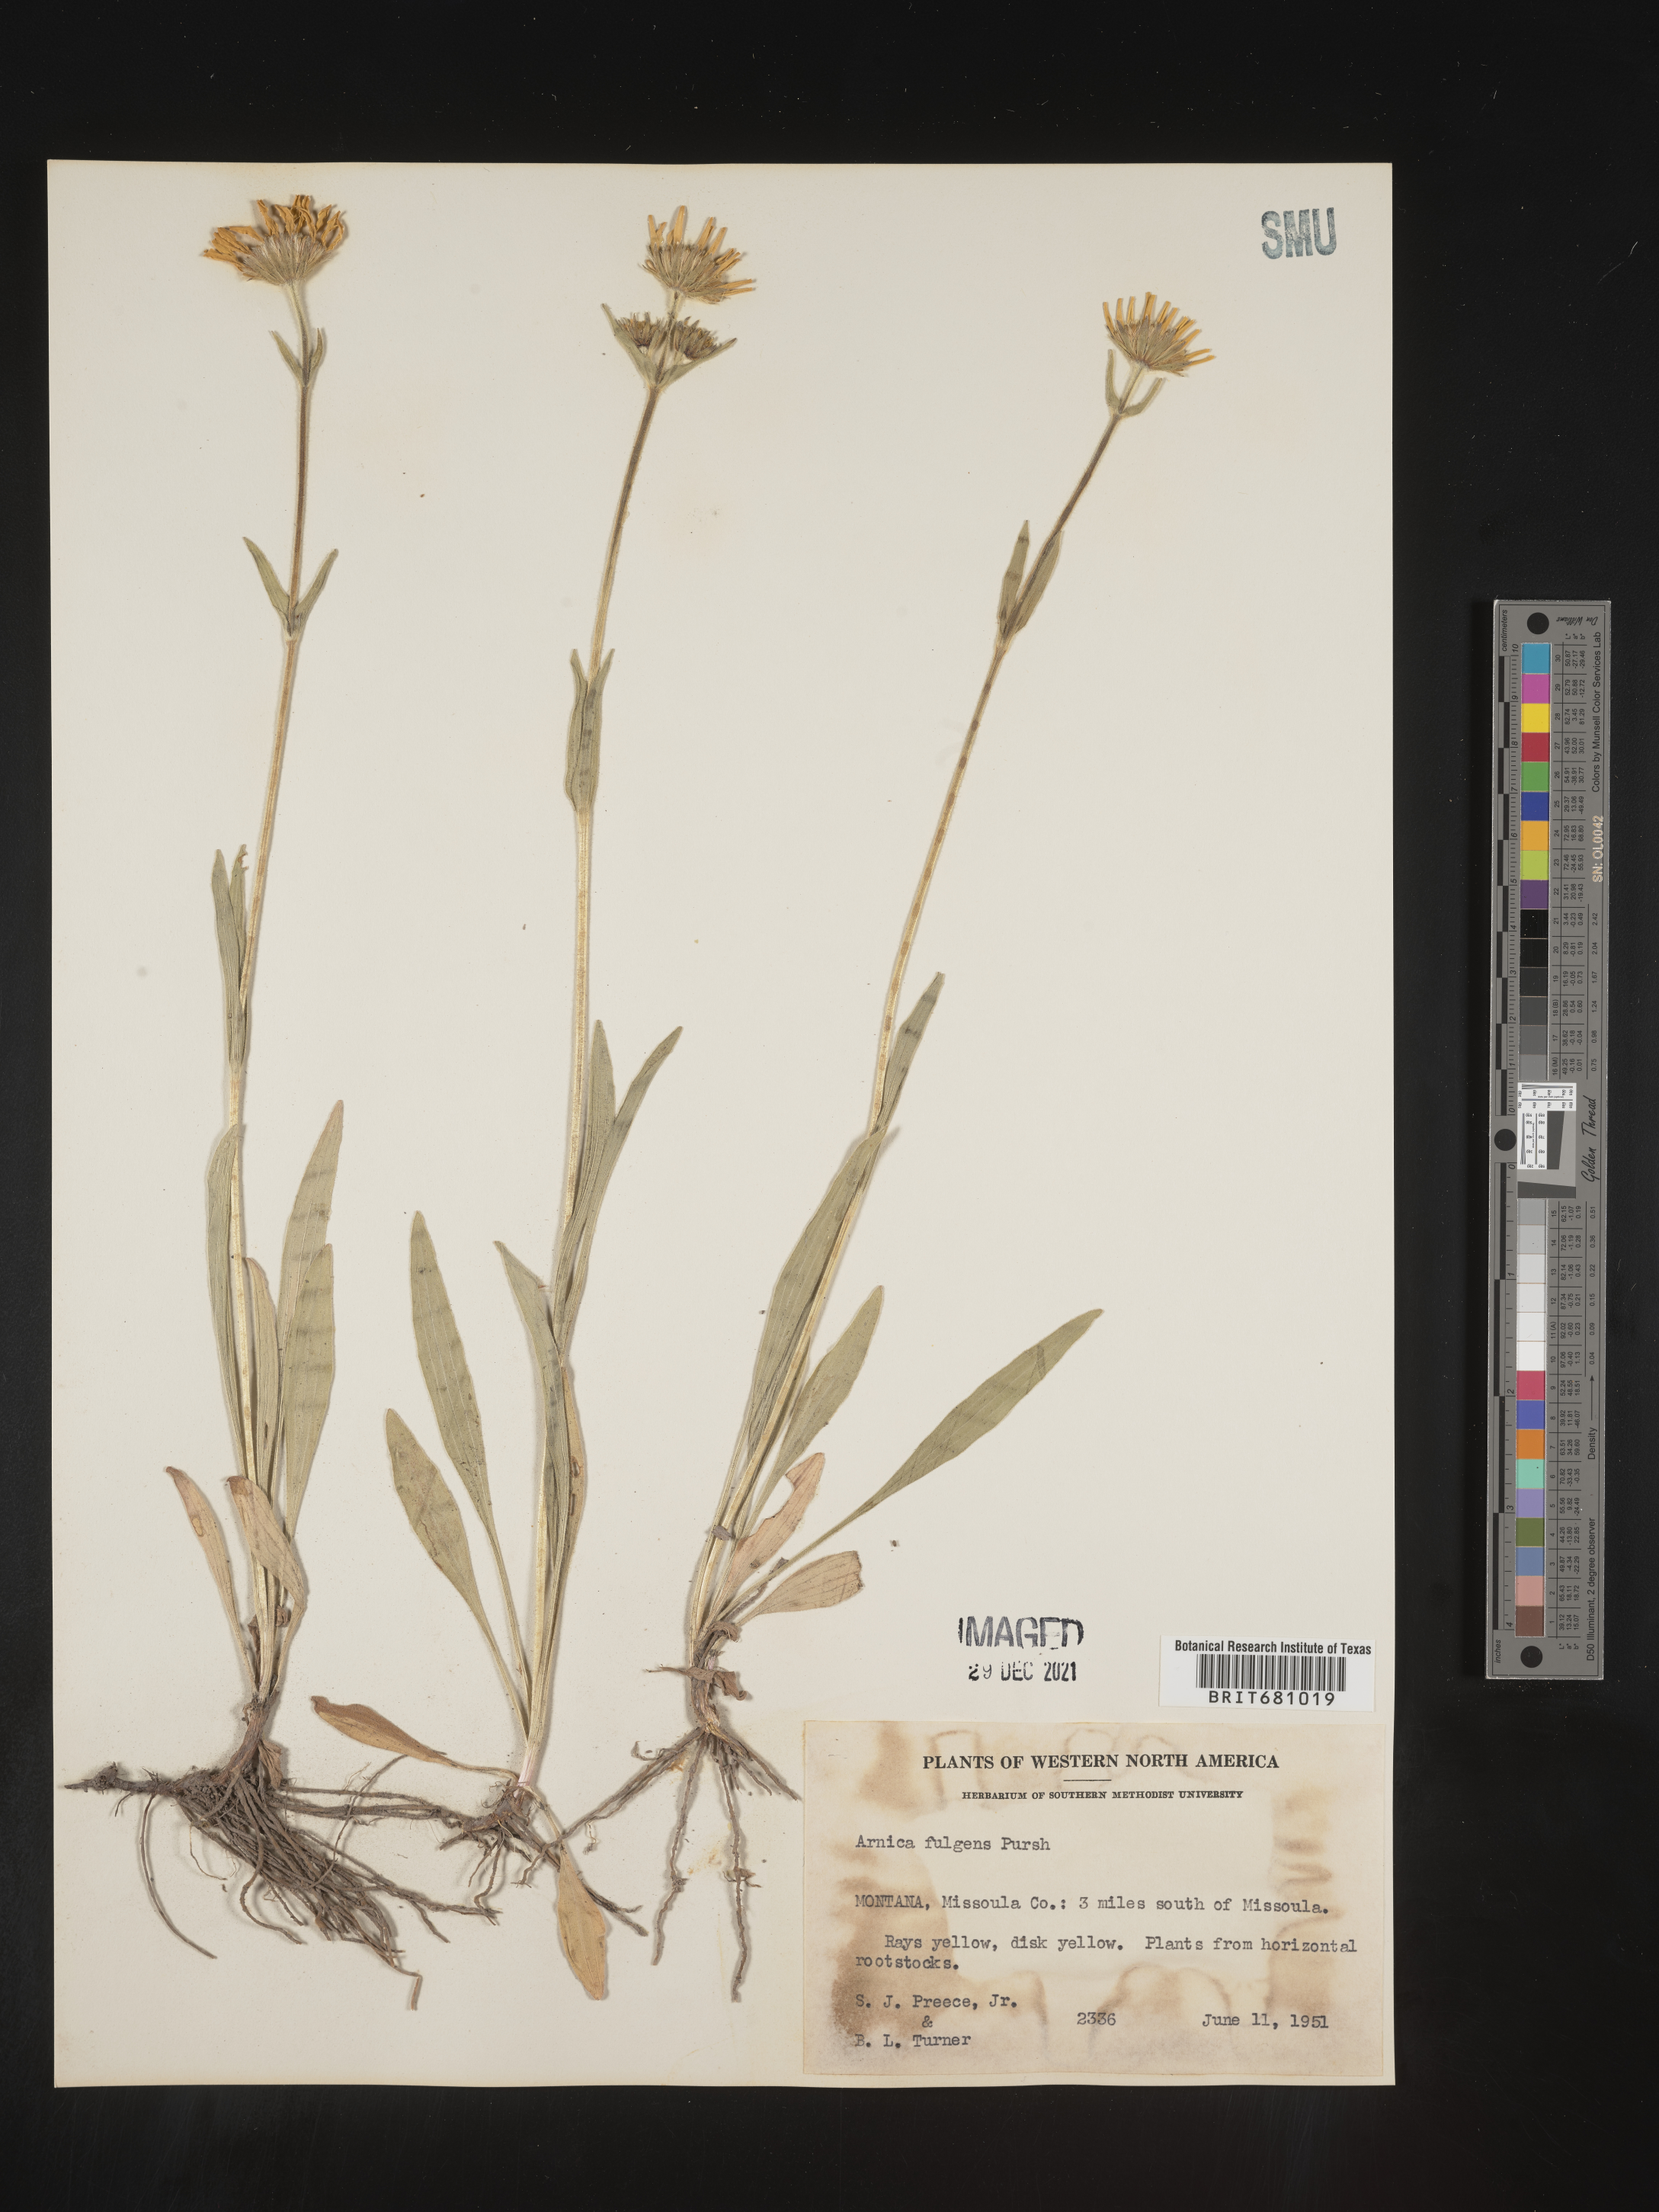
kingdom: Plantae
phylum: Tracheophyta
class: Magnoliopsida
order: Asterales
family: Asteraceae
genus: Arnica
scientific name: Arnica fulgens
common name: Foothill arnica
